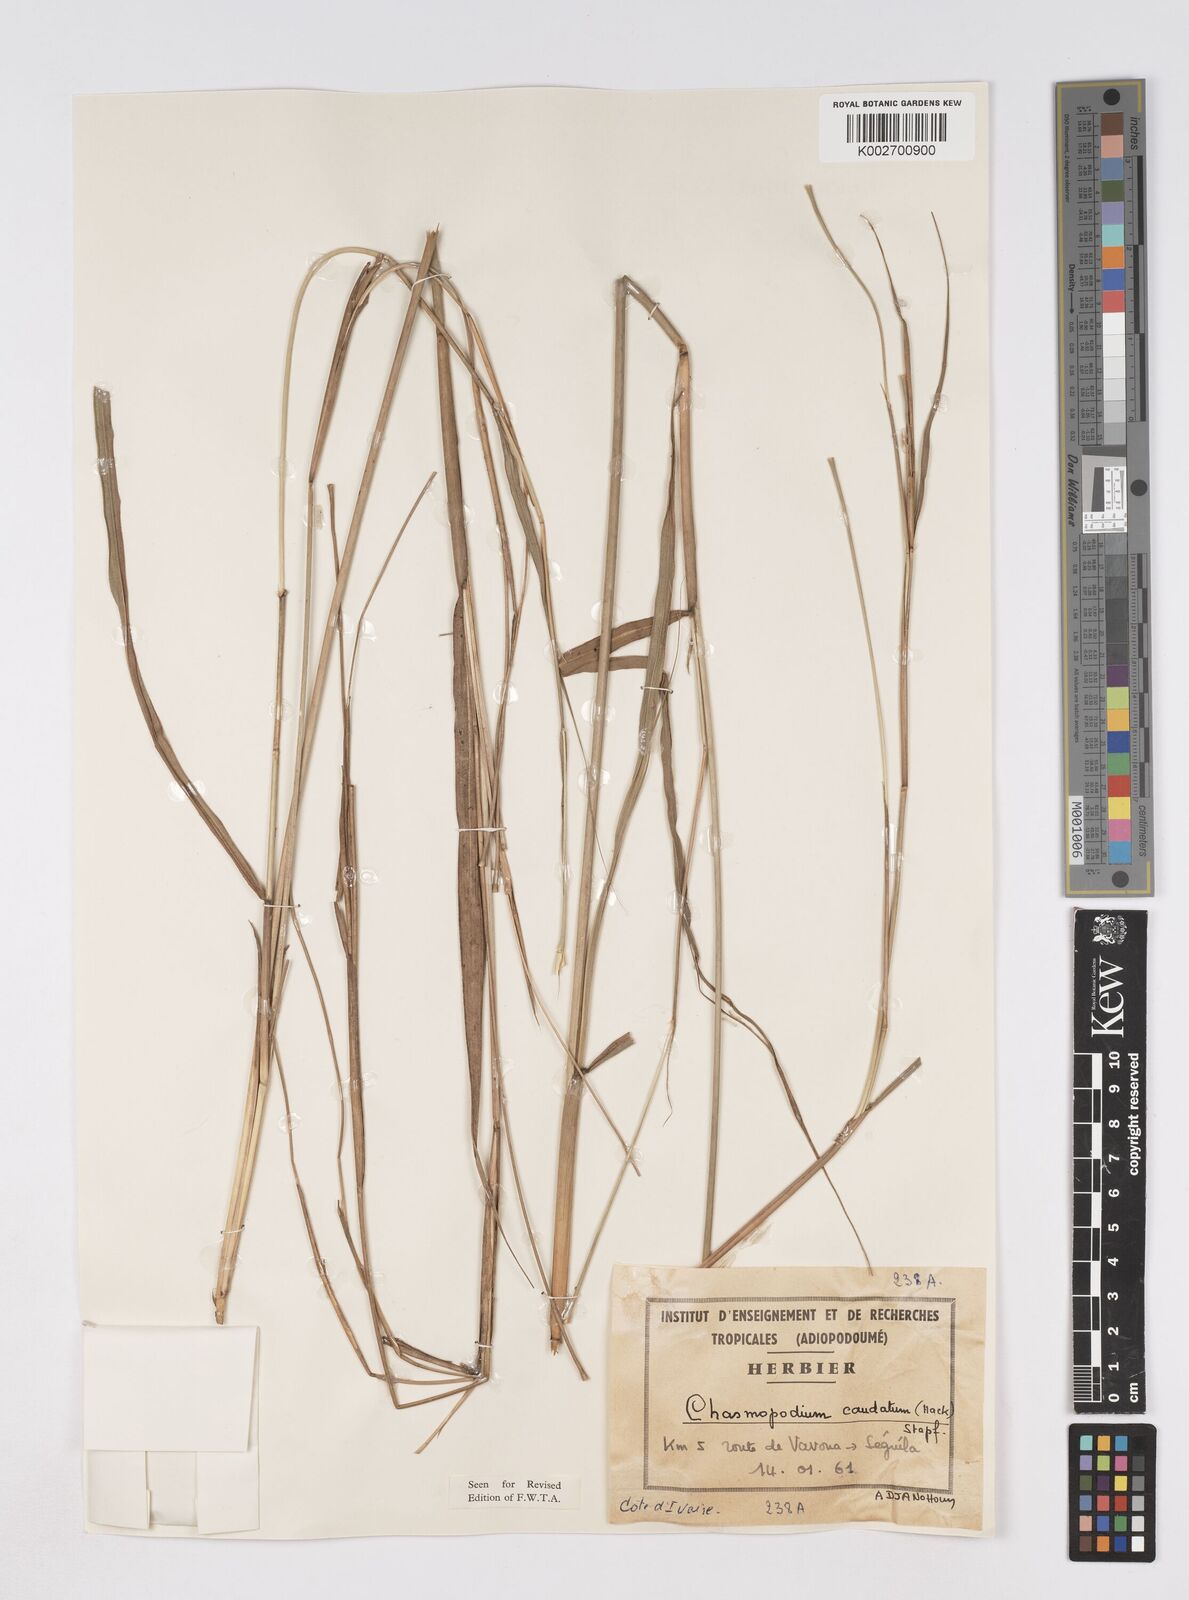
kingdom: Plantae
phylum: Tracheophyta
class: Liliopsida
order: Poales
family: Poaceae
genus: Chasmopodium
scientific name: Chasmopodium caudatum
